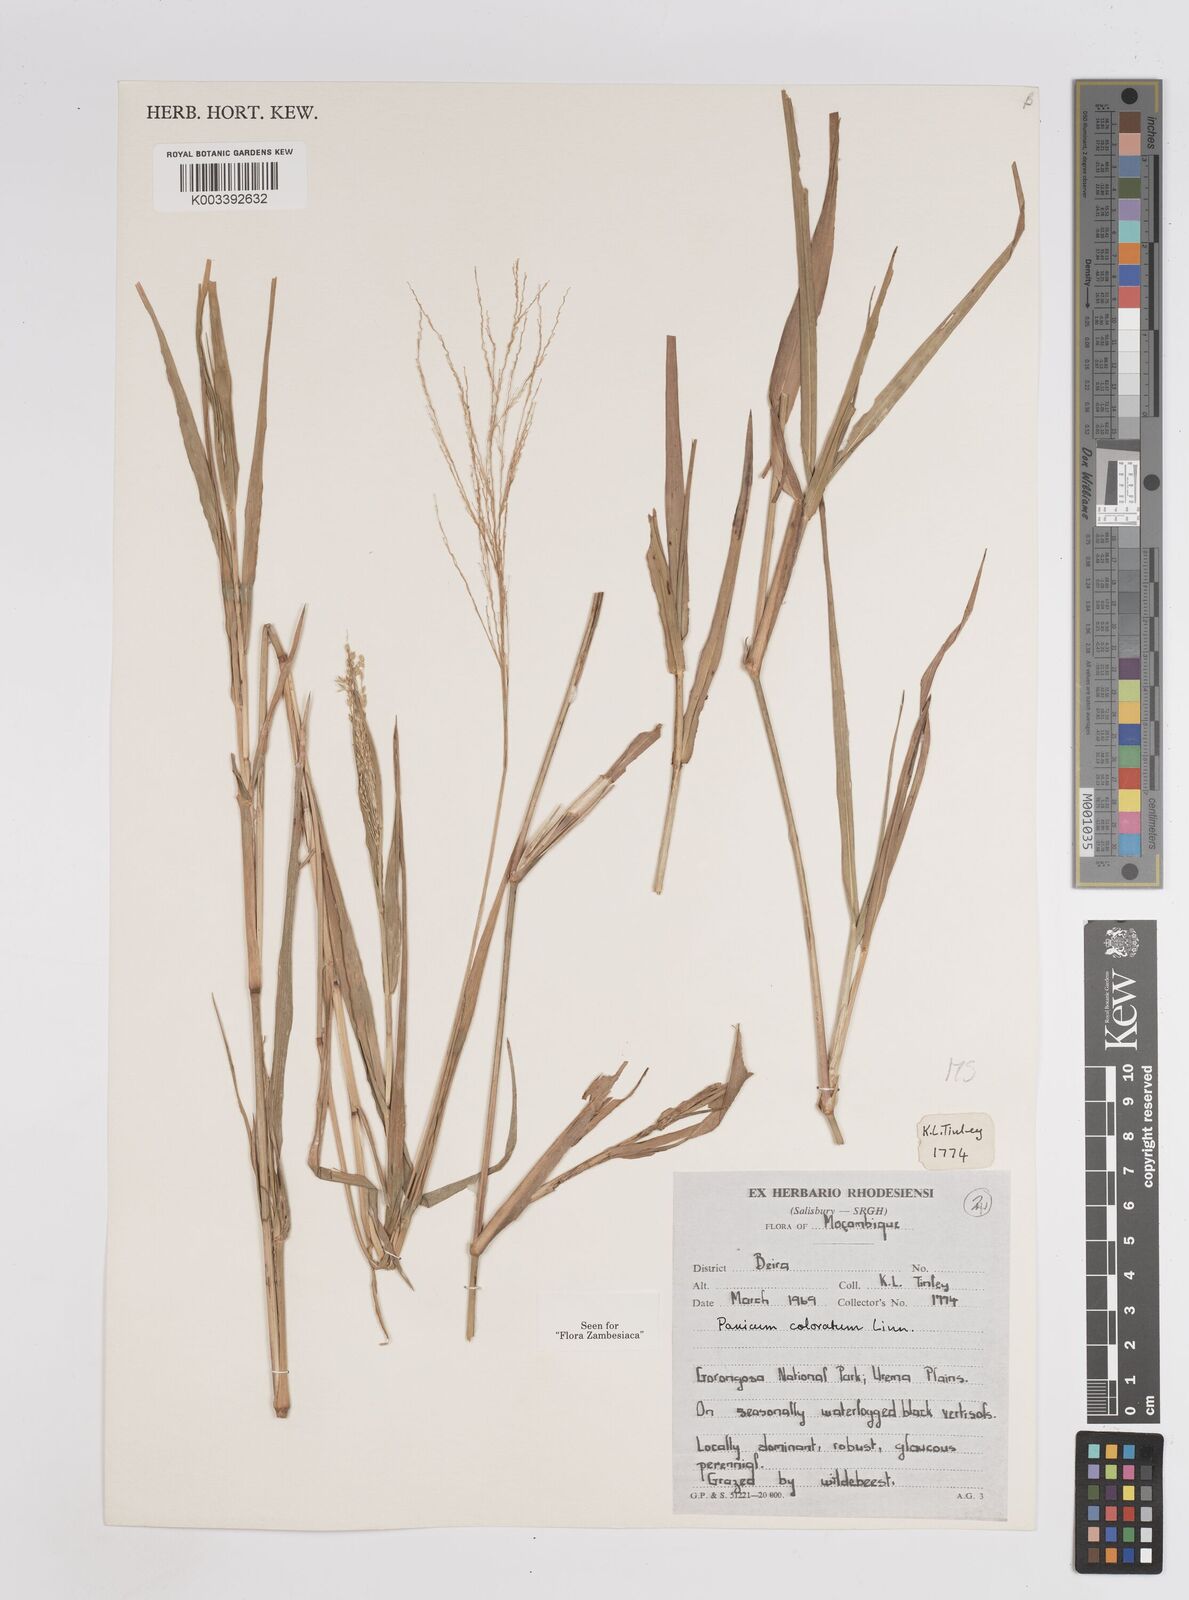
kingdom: Plantae
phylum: Tracheophyta
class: Liliopsida
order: Poales
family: Poaceae
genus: Panicum
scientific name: Panicum
